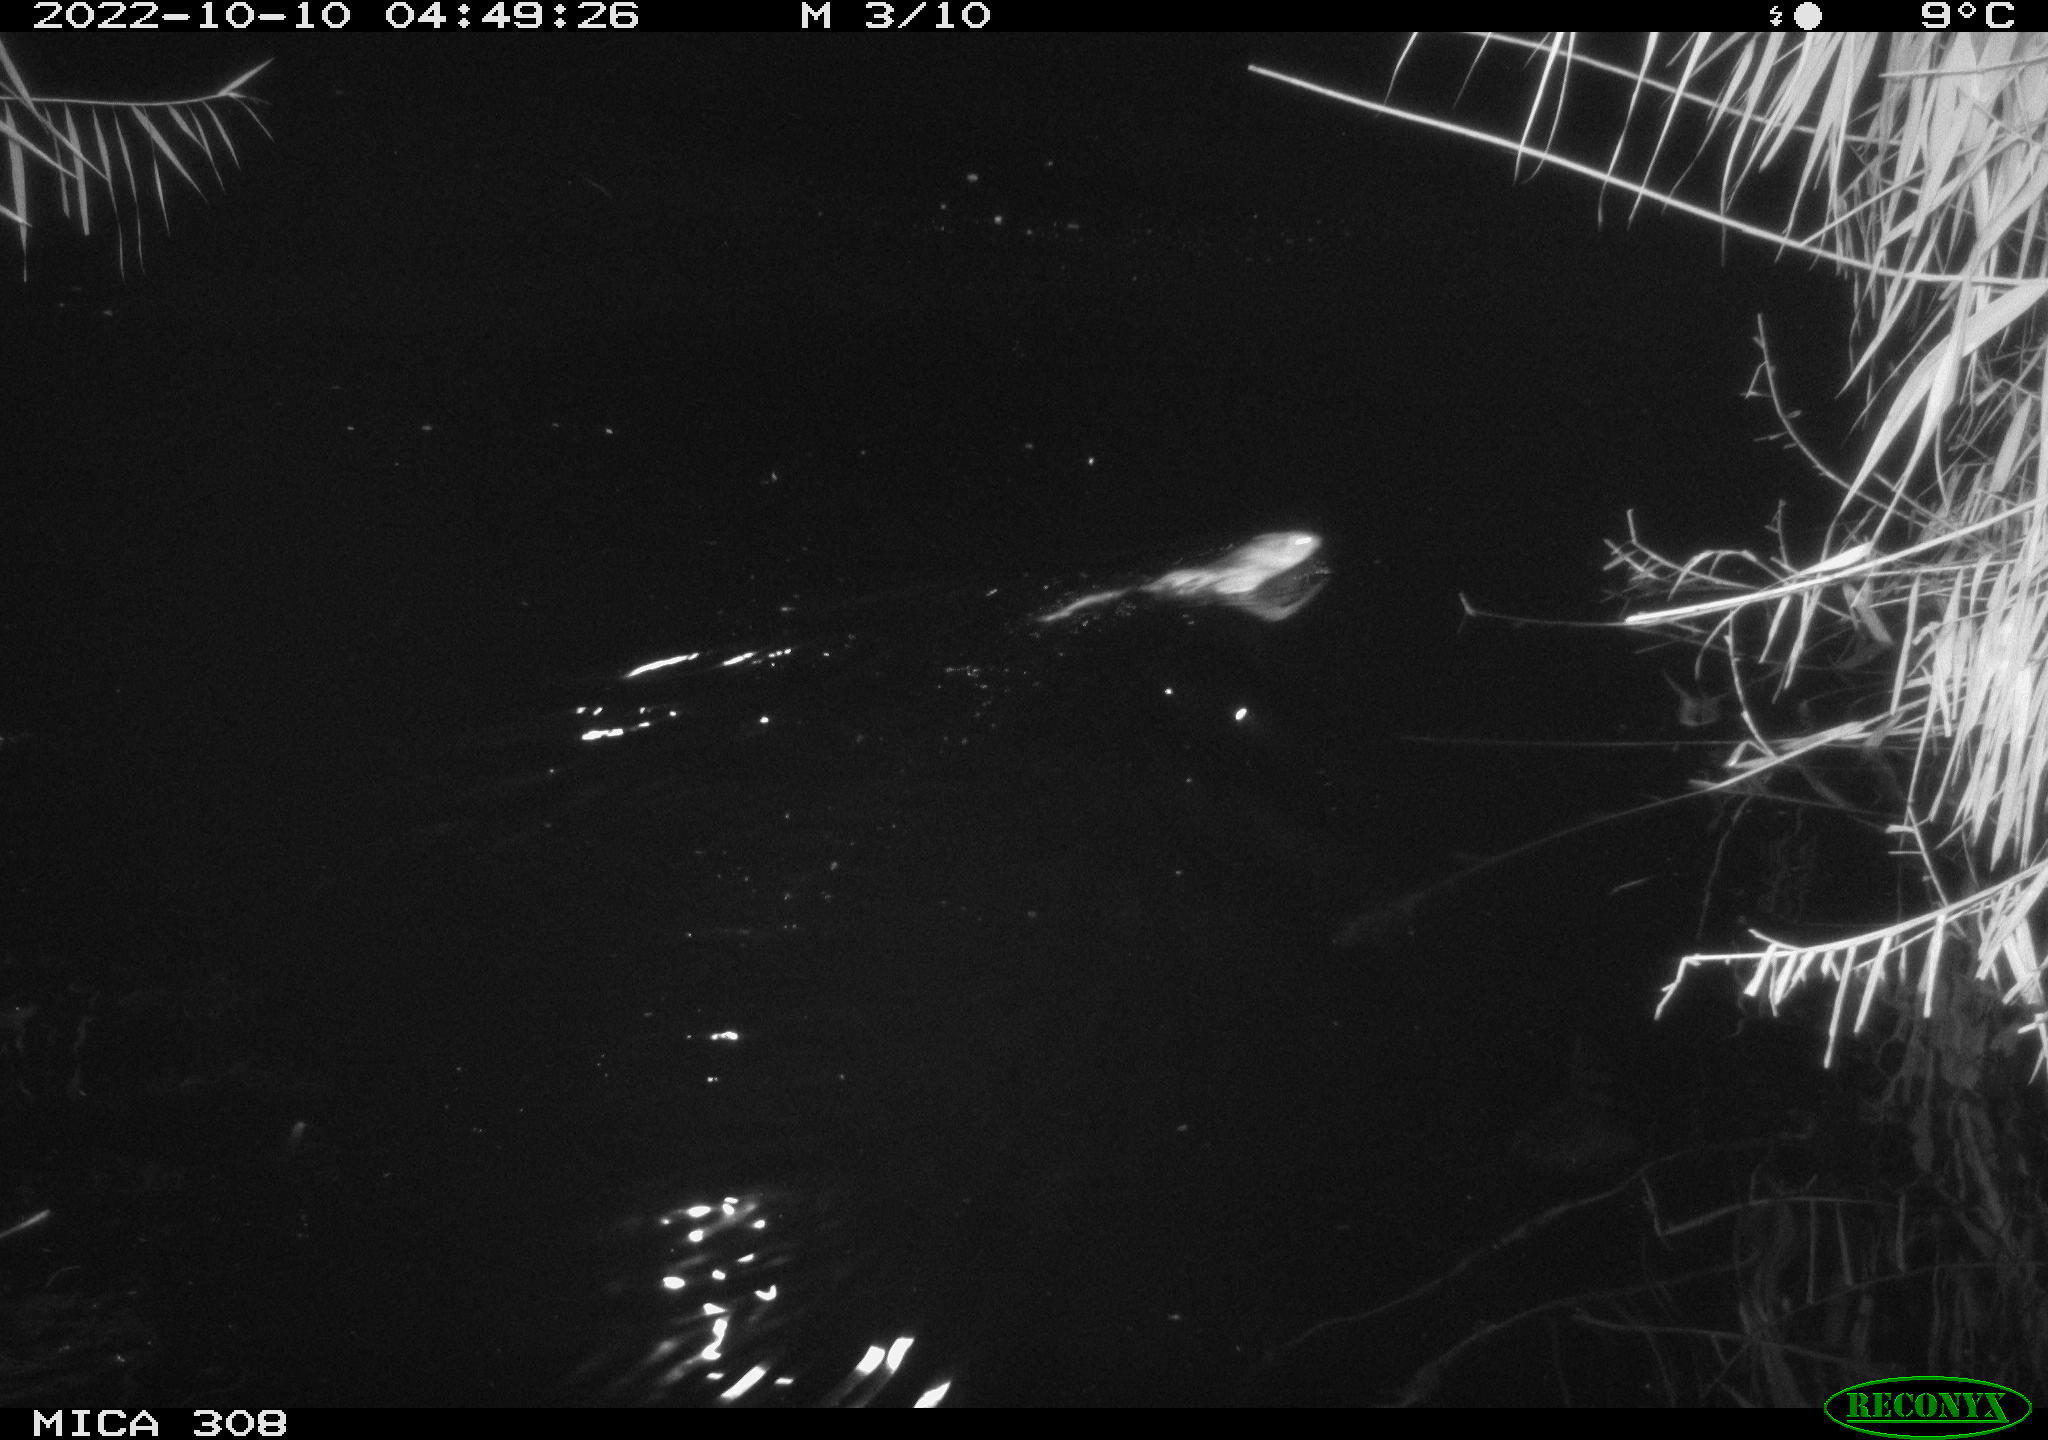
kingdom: Animalia
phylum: Chordata
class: Mammalia
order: Rodentia
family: Muridae
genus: Rattus
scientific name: Rattus norvegicus
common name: Brown rat
